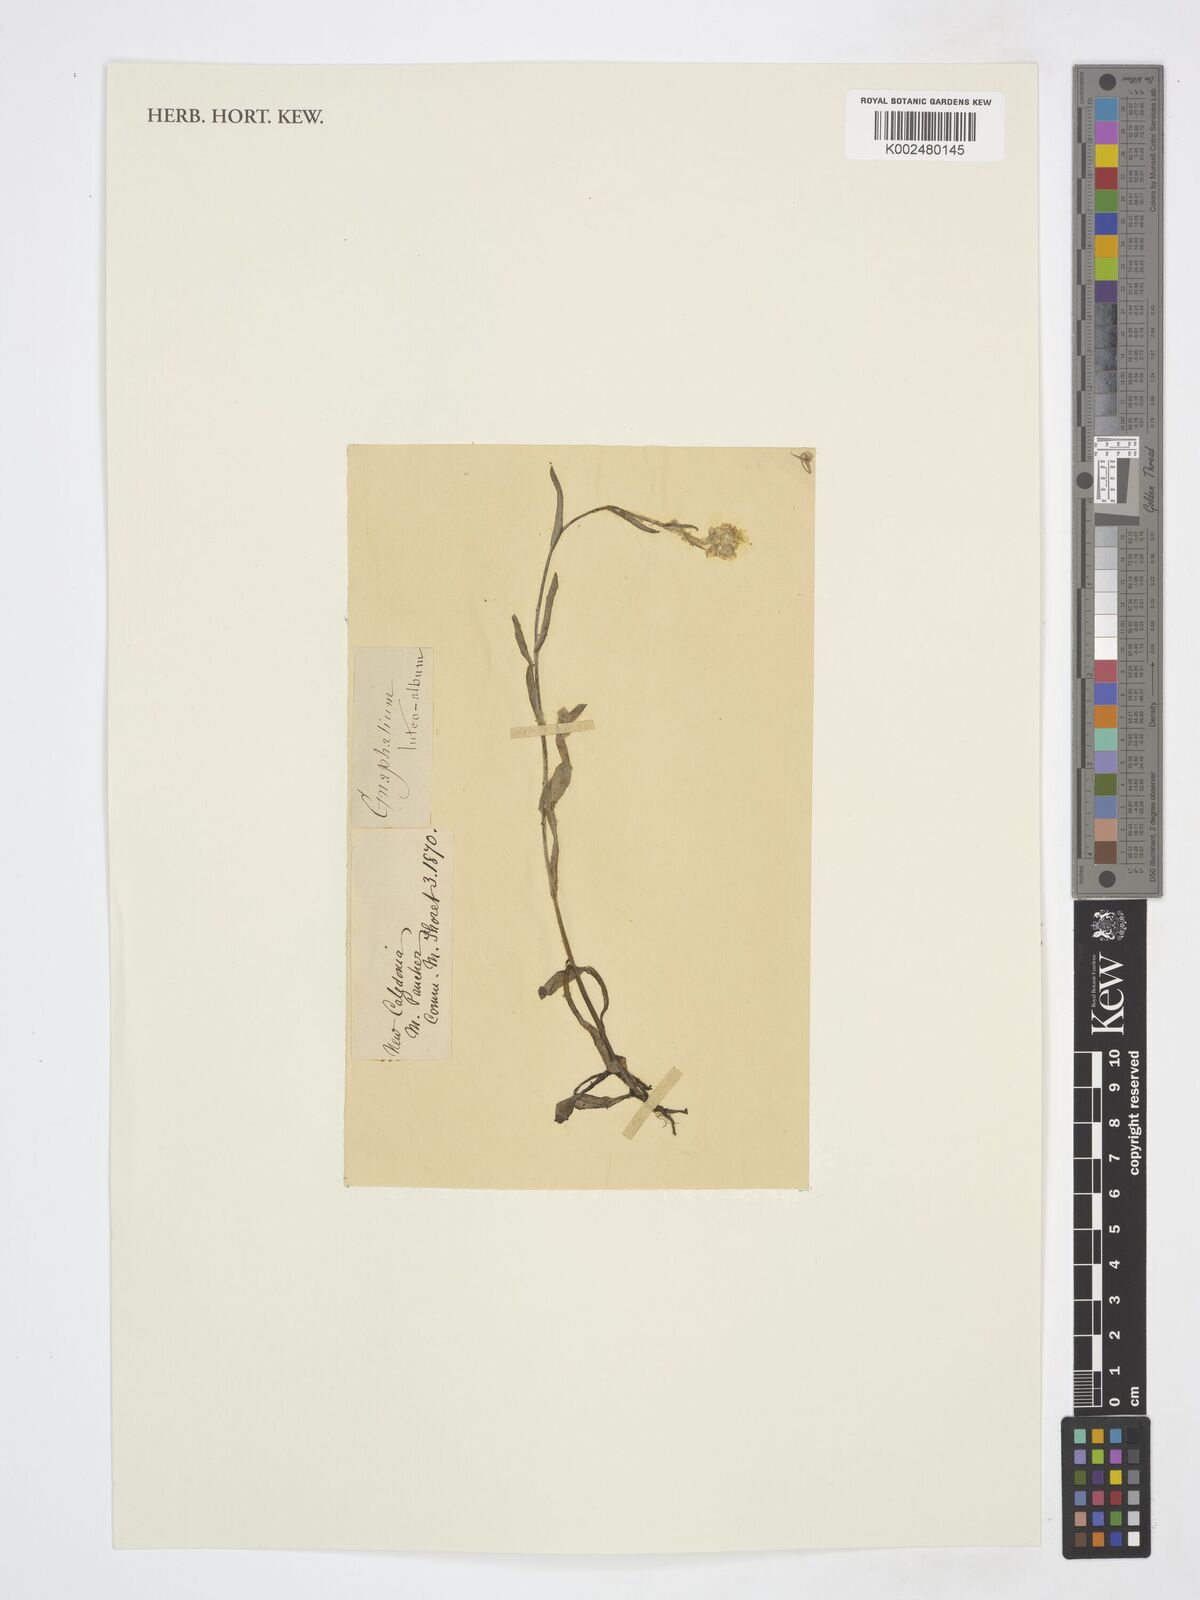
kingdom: Plantae
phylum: Tracheophyta
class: Magnoliopsida
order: Asterales
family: Asteraceae
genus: Helichrysum
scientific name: Helichrysum luteoalbum
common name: Daisy
